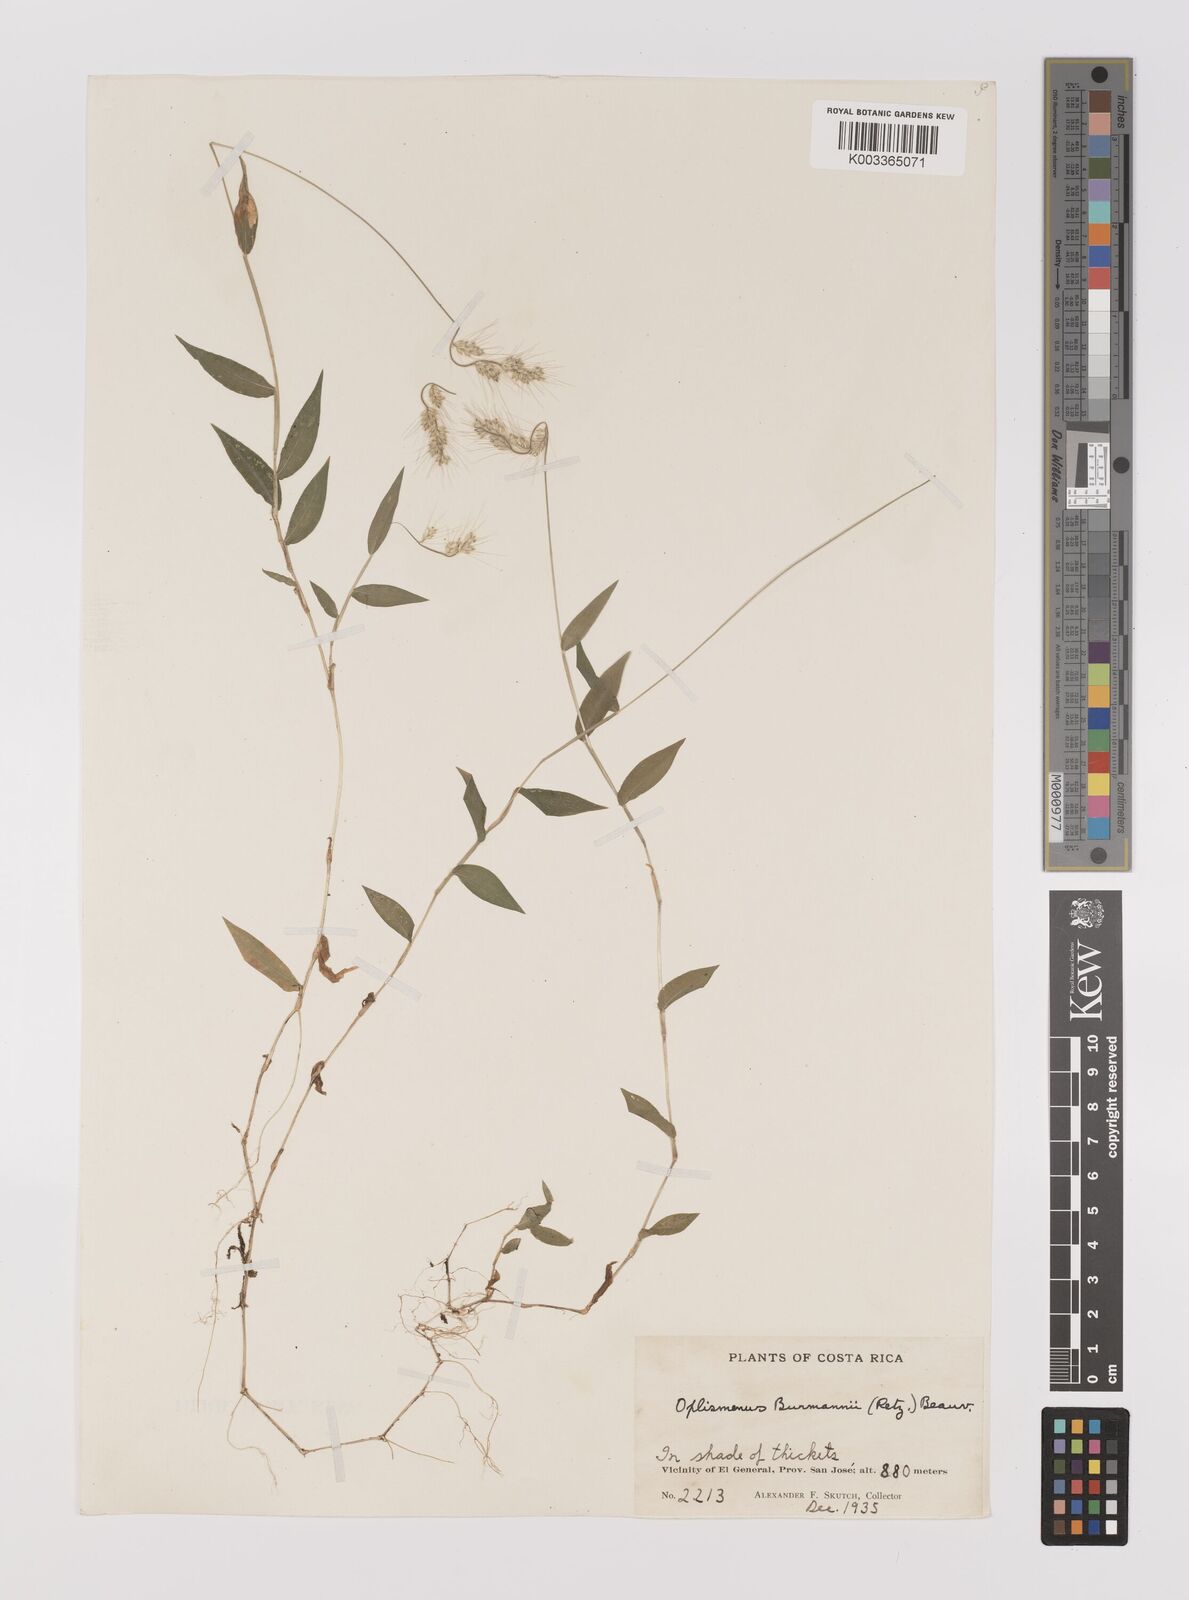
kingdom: Plantae
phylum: Tracheophyta
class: Liliopsida
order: Poales
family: Poaceae
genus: Oplismenus
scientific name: Oplismenus burmanni
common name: Burmann's basketgrass
